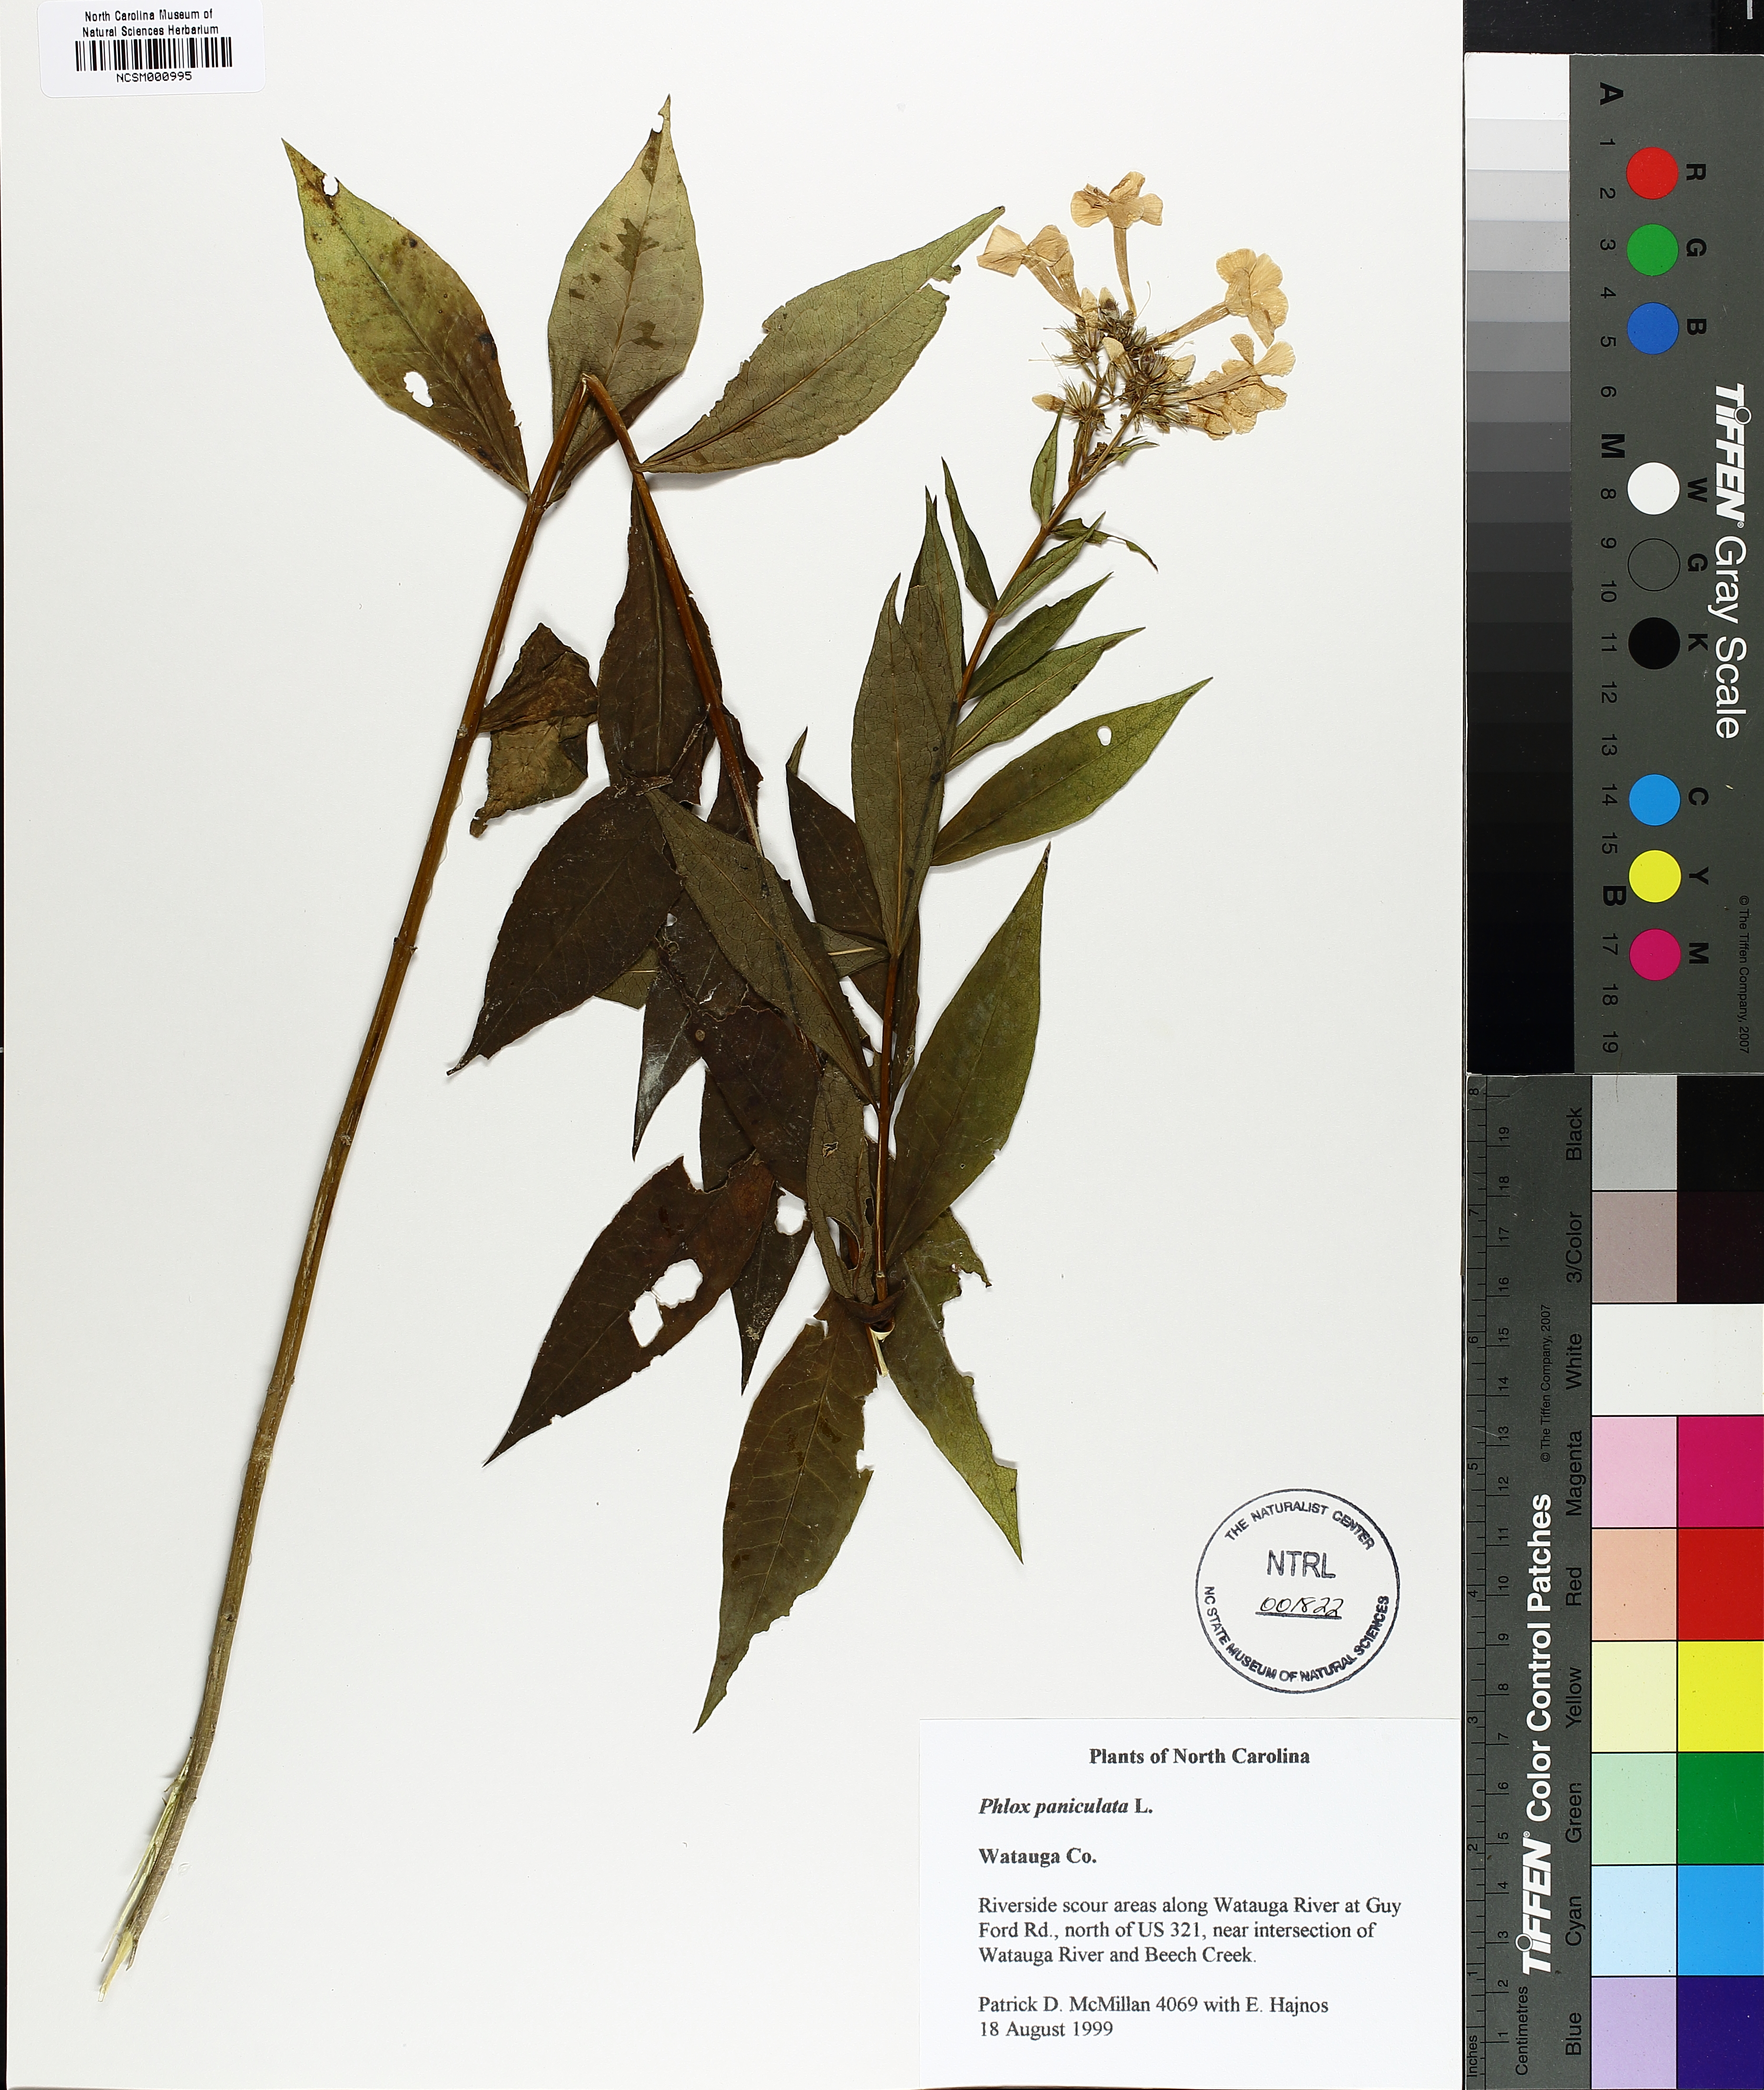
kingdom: Plantae
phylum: Tracheophyta
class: Magnoliopsida
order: Ericales
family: Polemoniaceae
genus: Phlox
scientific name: Phlox paniculata
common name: Fall phlox
